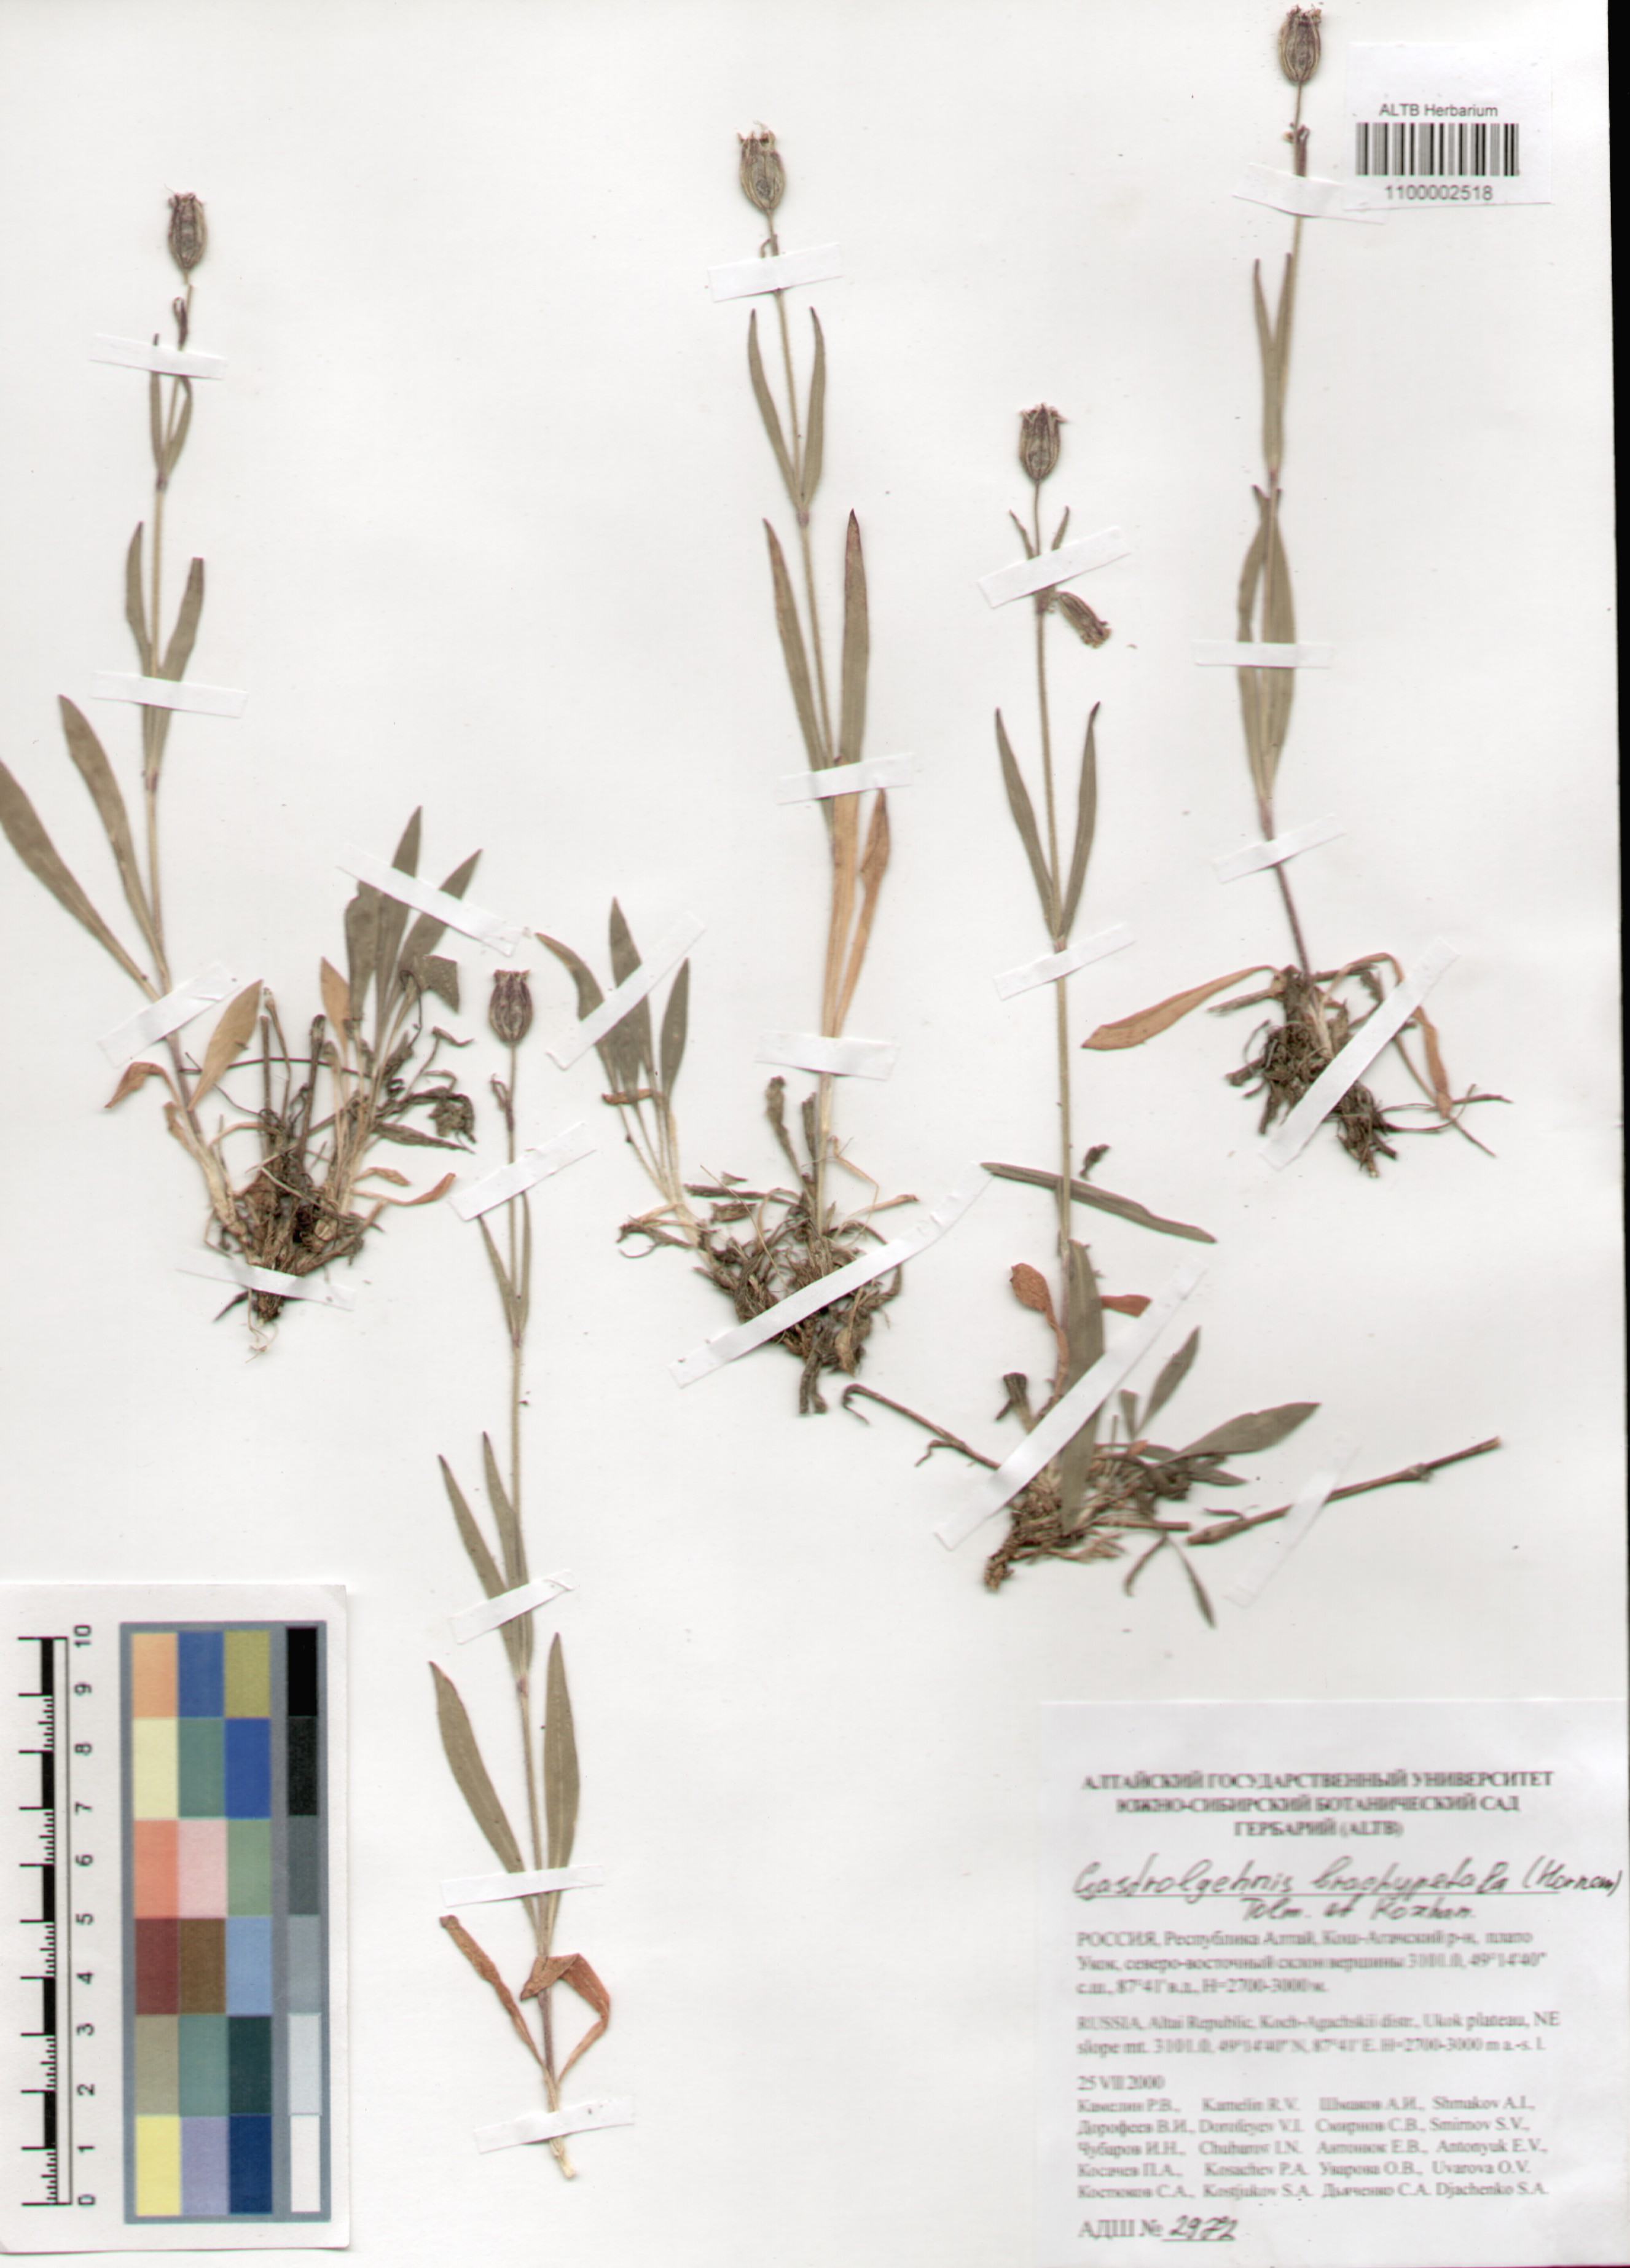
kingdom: Plantae
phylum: Tracheophyta
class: Magnoliopsida
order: Caryophyllales
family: Caryophyllaceae
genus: Silene
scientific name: Silene songarica
